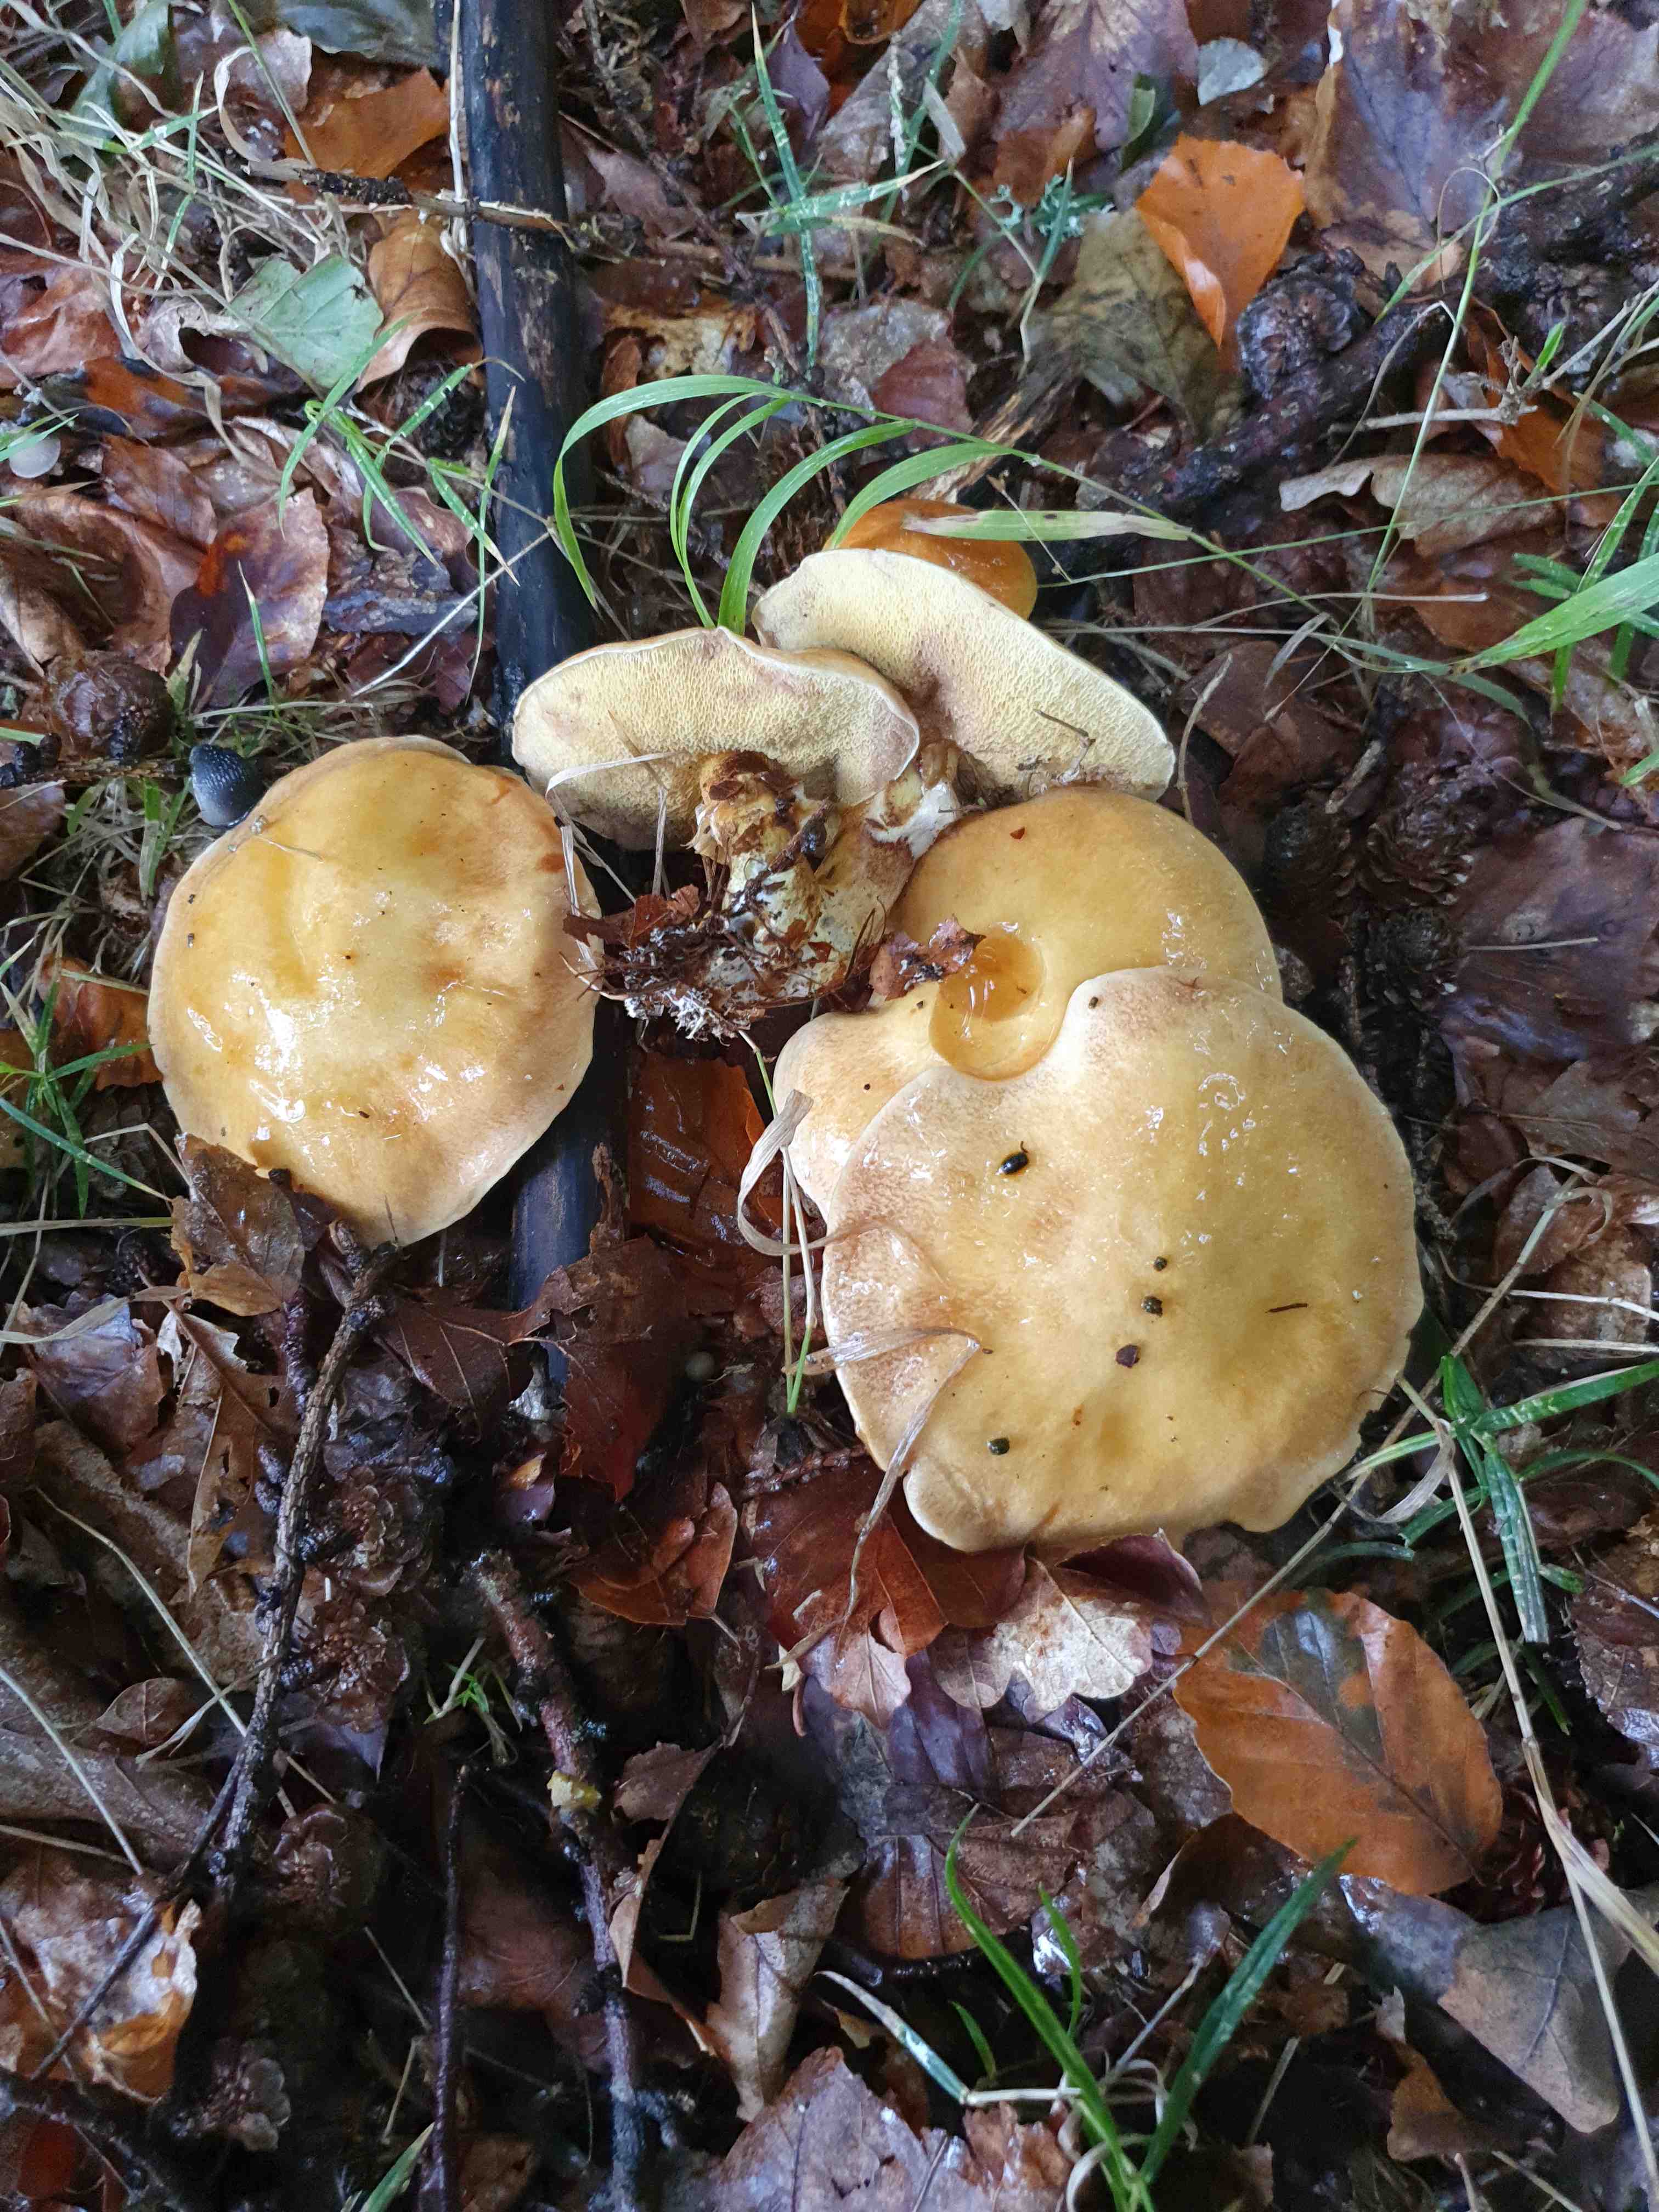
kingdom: Fungi
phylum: Basidiomycota
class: Agaricomycetes
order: Boletales
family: Suillaceae
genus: Suillus
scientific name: Suillus grevillei
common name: lærke-slimrørhat
